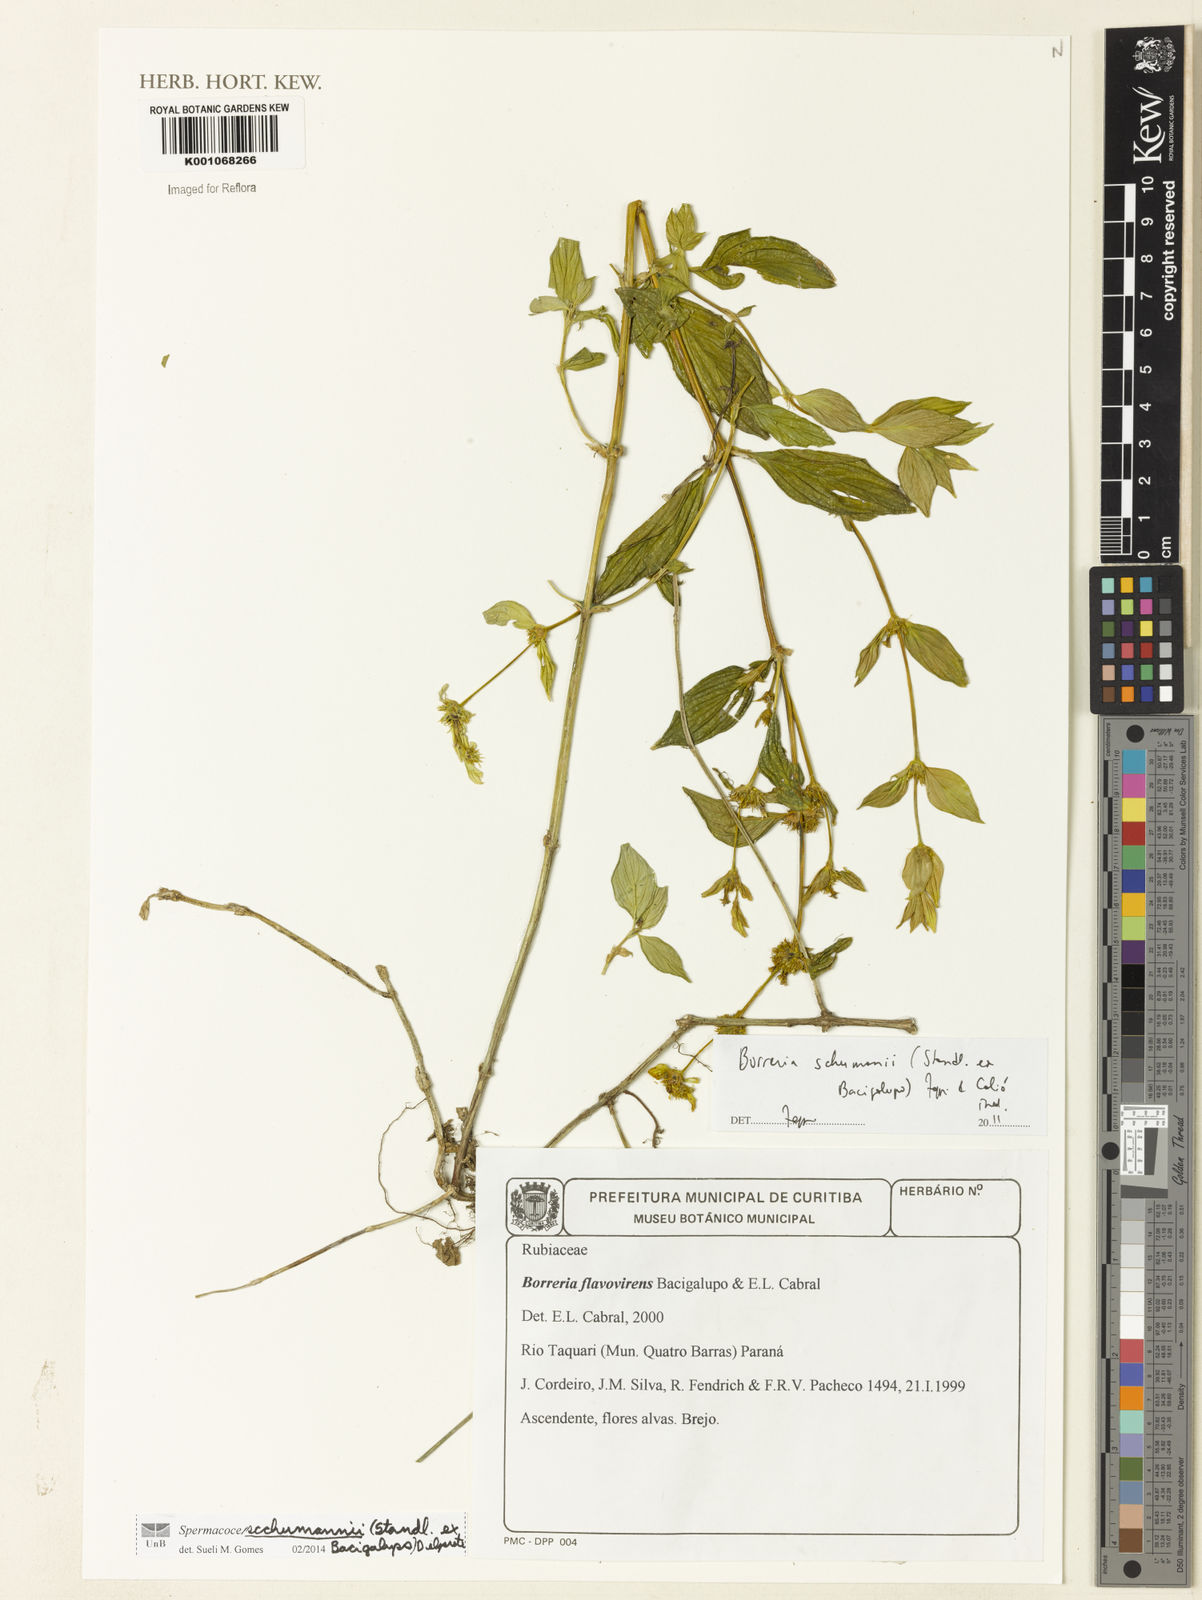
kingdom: Plantae
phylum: Tracheophyta
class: Magnoliopsida
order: Gentianales
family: Rubiaceae
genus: Spermacoce
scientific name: Spermacoce schumannii
